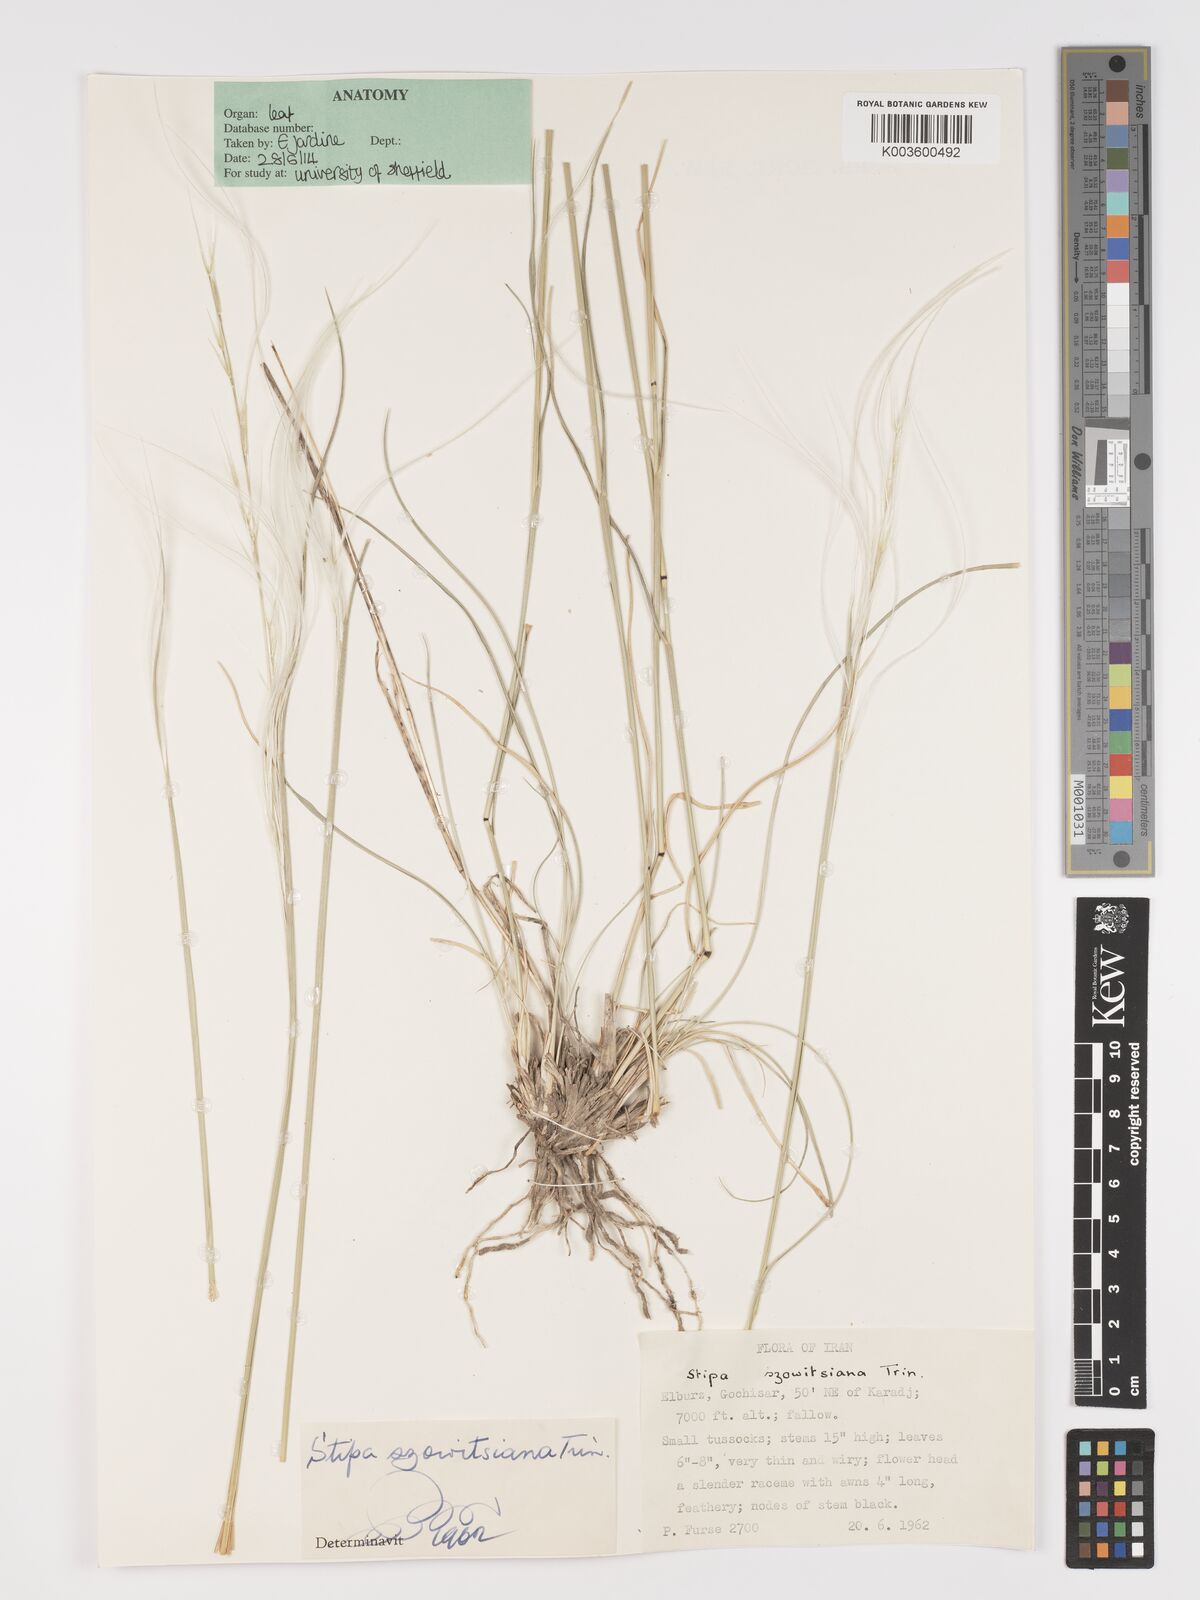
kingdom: Plantae
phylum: Tracheophyta
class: Liliopsida
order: Poales
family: Poaceae
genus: Stipa
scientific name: Stipa arabica
